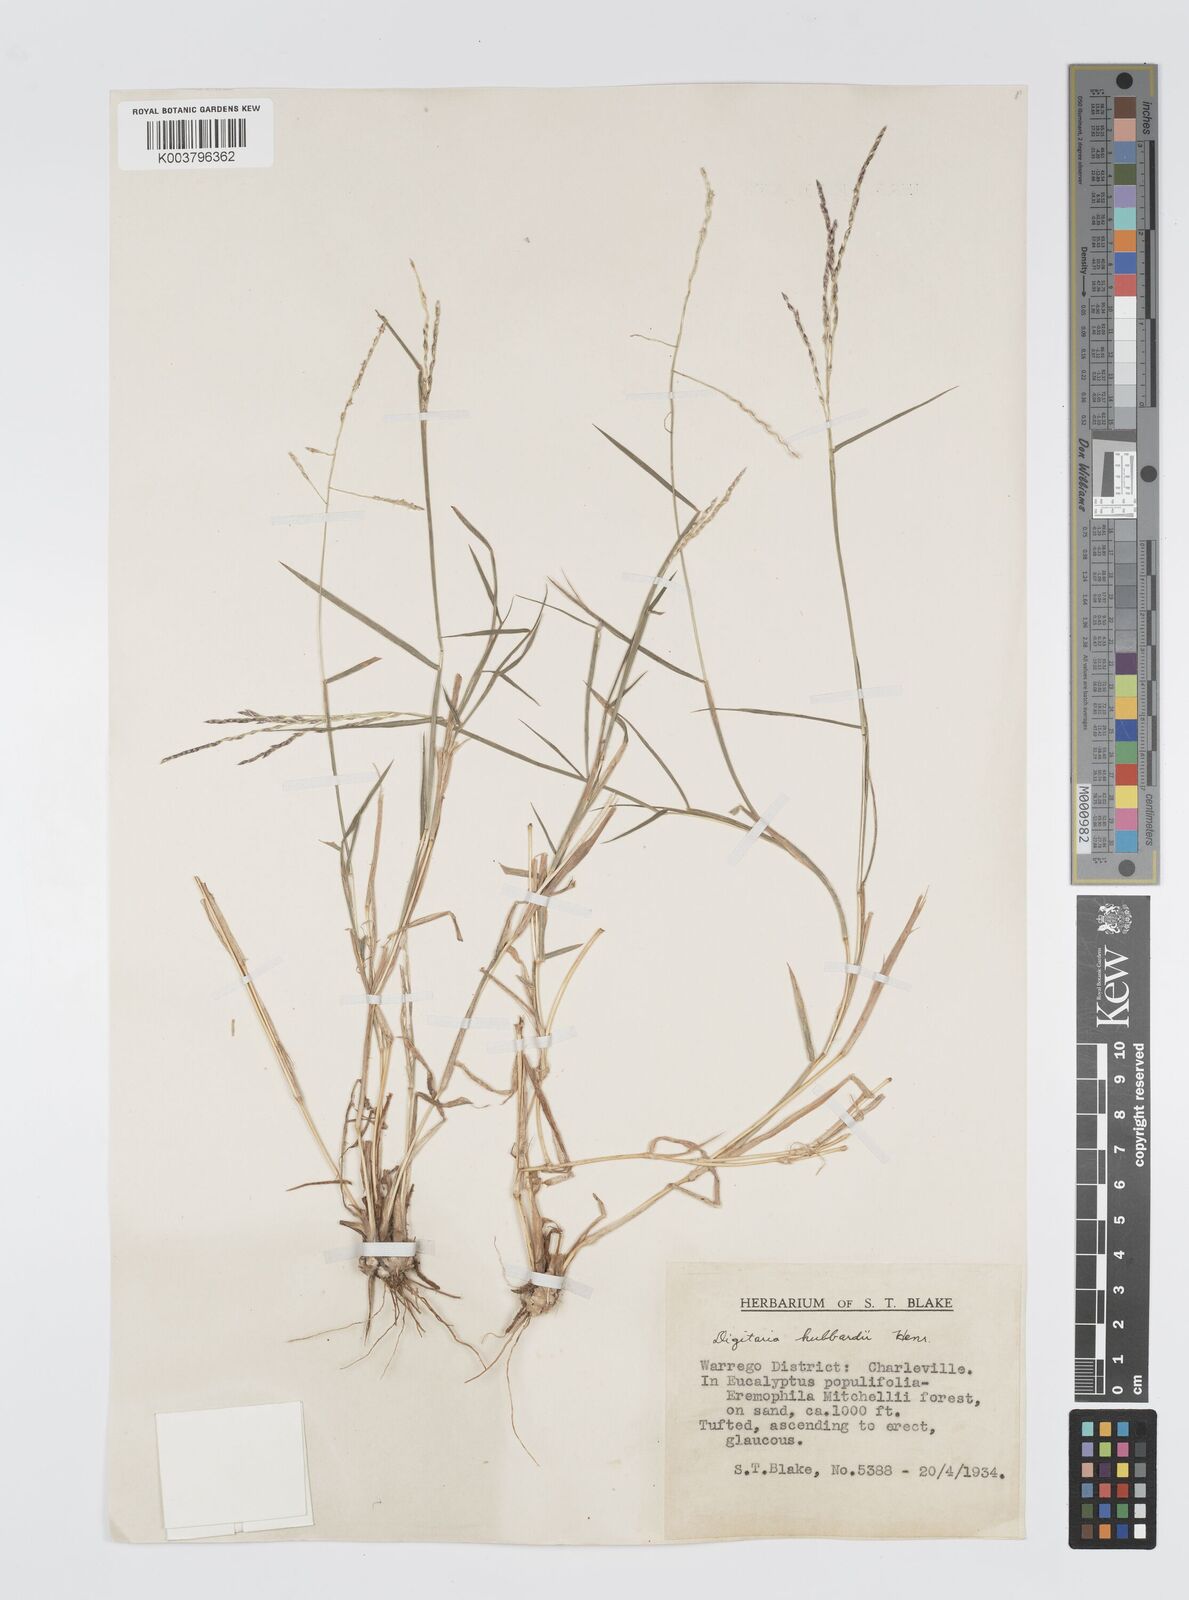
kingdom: Plantae
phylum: Tracheophyta
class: Liliopsida
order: Poales
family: Poaceae
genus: Digitaria
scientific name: Digitaria hubbardii
